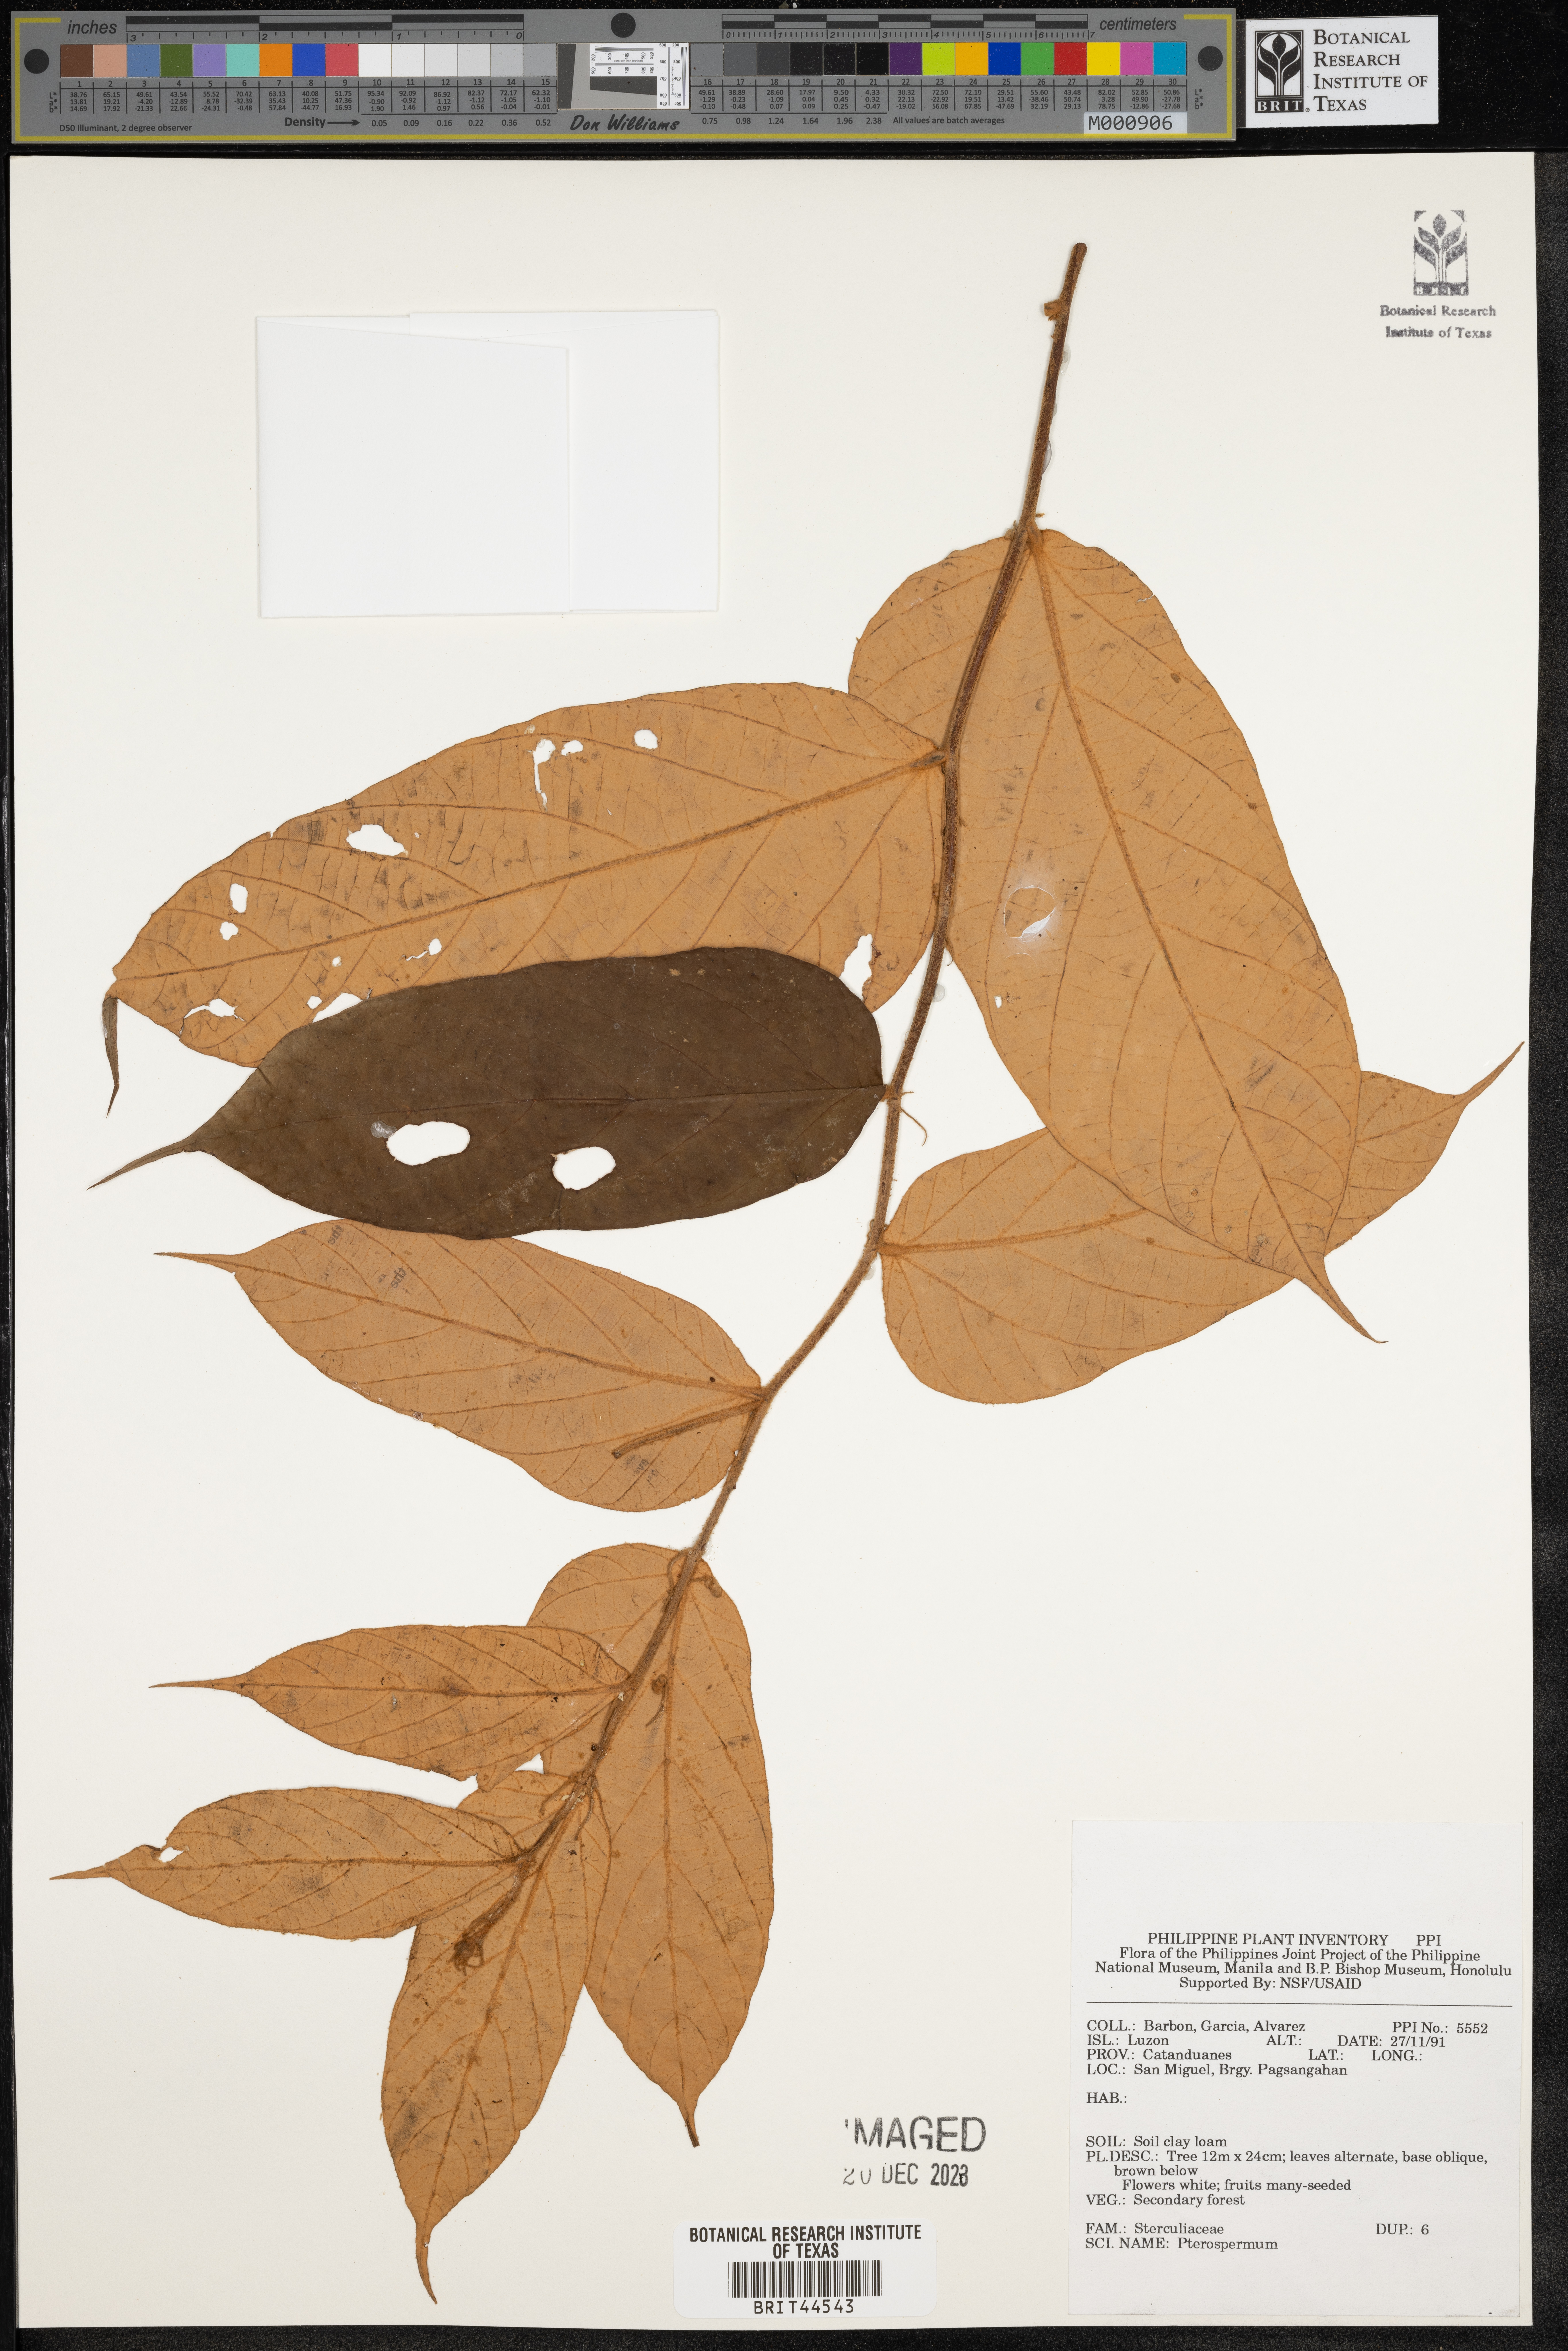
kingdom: Plantae
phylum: Tracheophyta
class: Magnoliopsida
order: Malvales
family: Malvaceae
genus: Pterospermum
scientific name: Pterospermum
